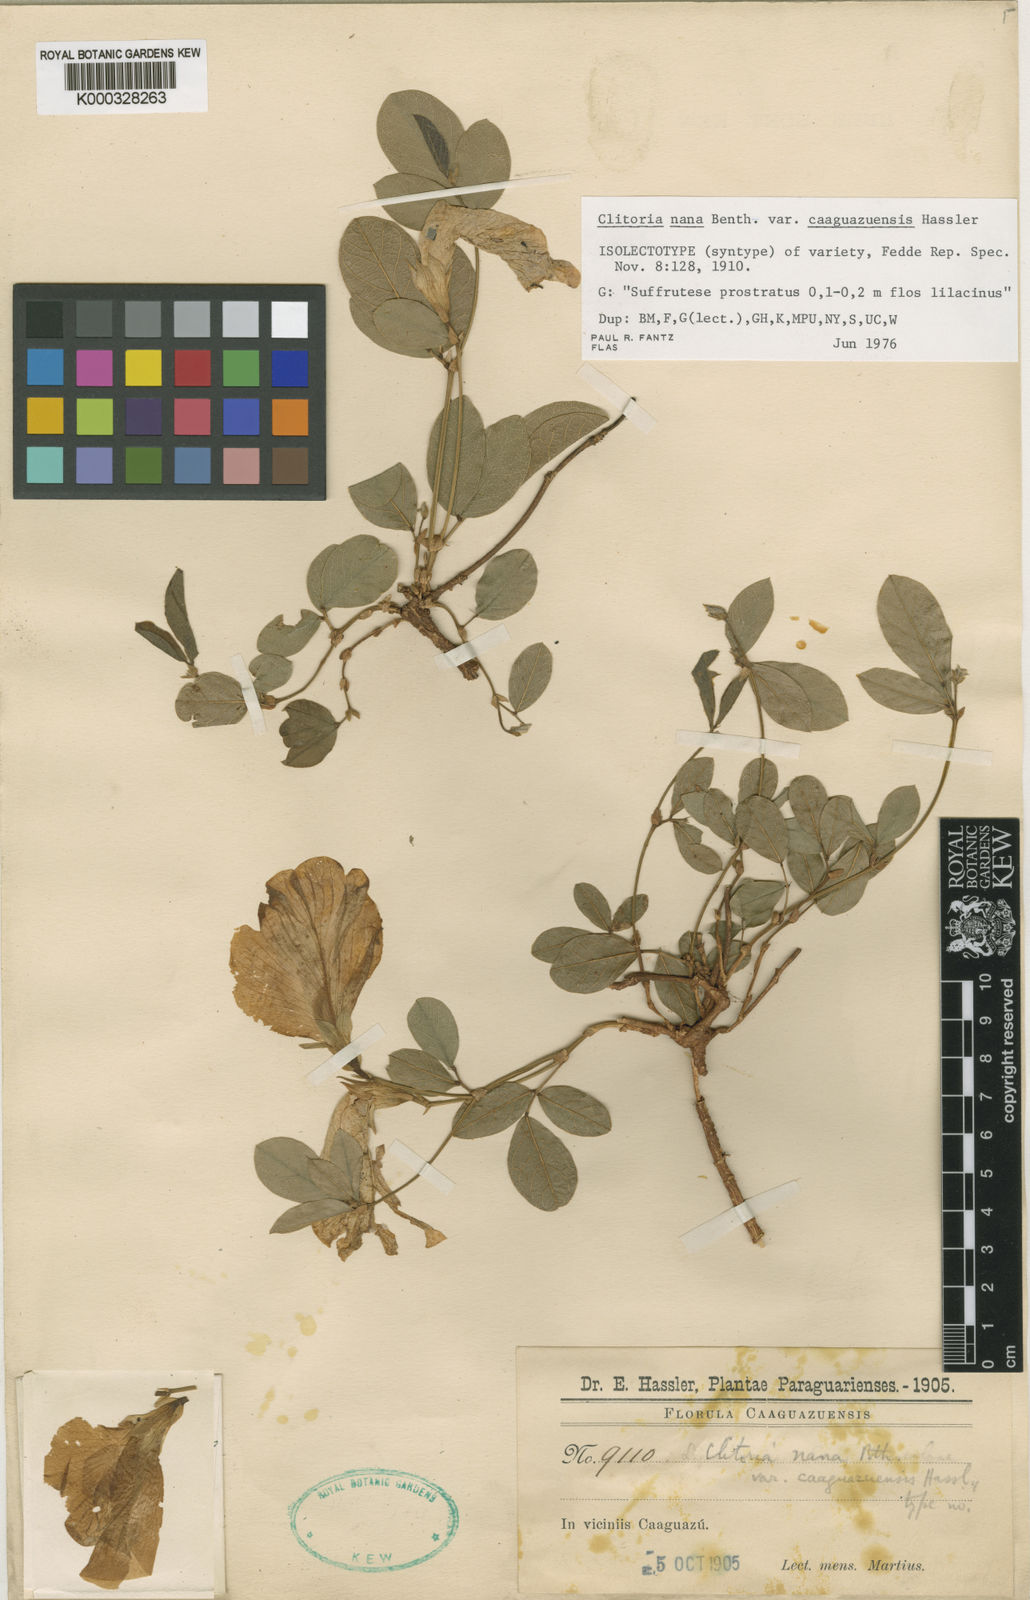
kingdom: Plantae
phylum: Tracheophyta
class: Magnoliopsida
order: Fabales
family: Fabaceae
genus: Clitoria
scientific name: Clitoria nana
